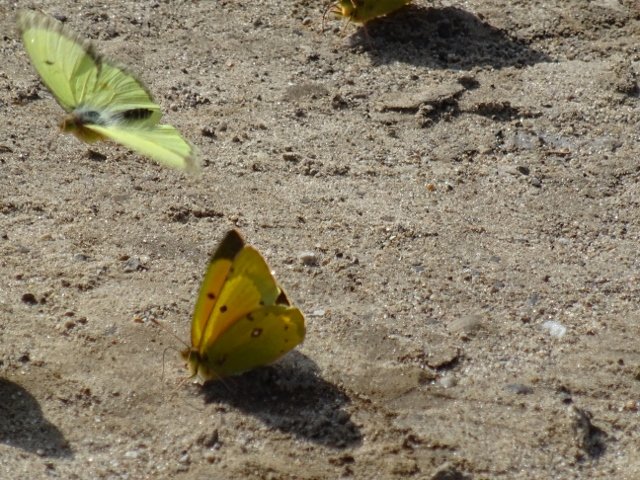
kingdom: Animalia
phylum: Arthropoda
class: Insecta
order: Lepidoptera
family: Pieridae
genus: Colias
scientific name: Colias eurytheme
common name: Orange Sulphur
